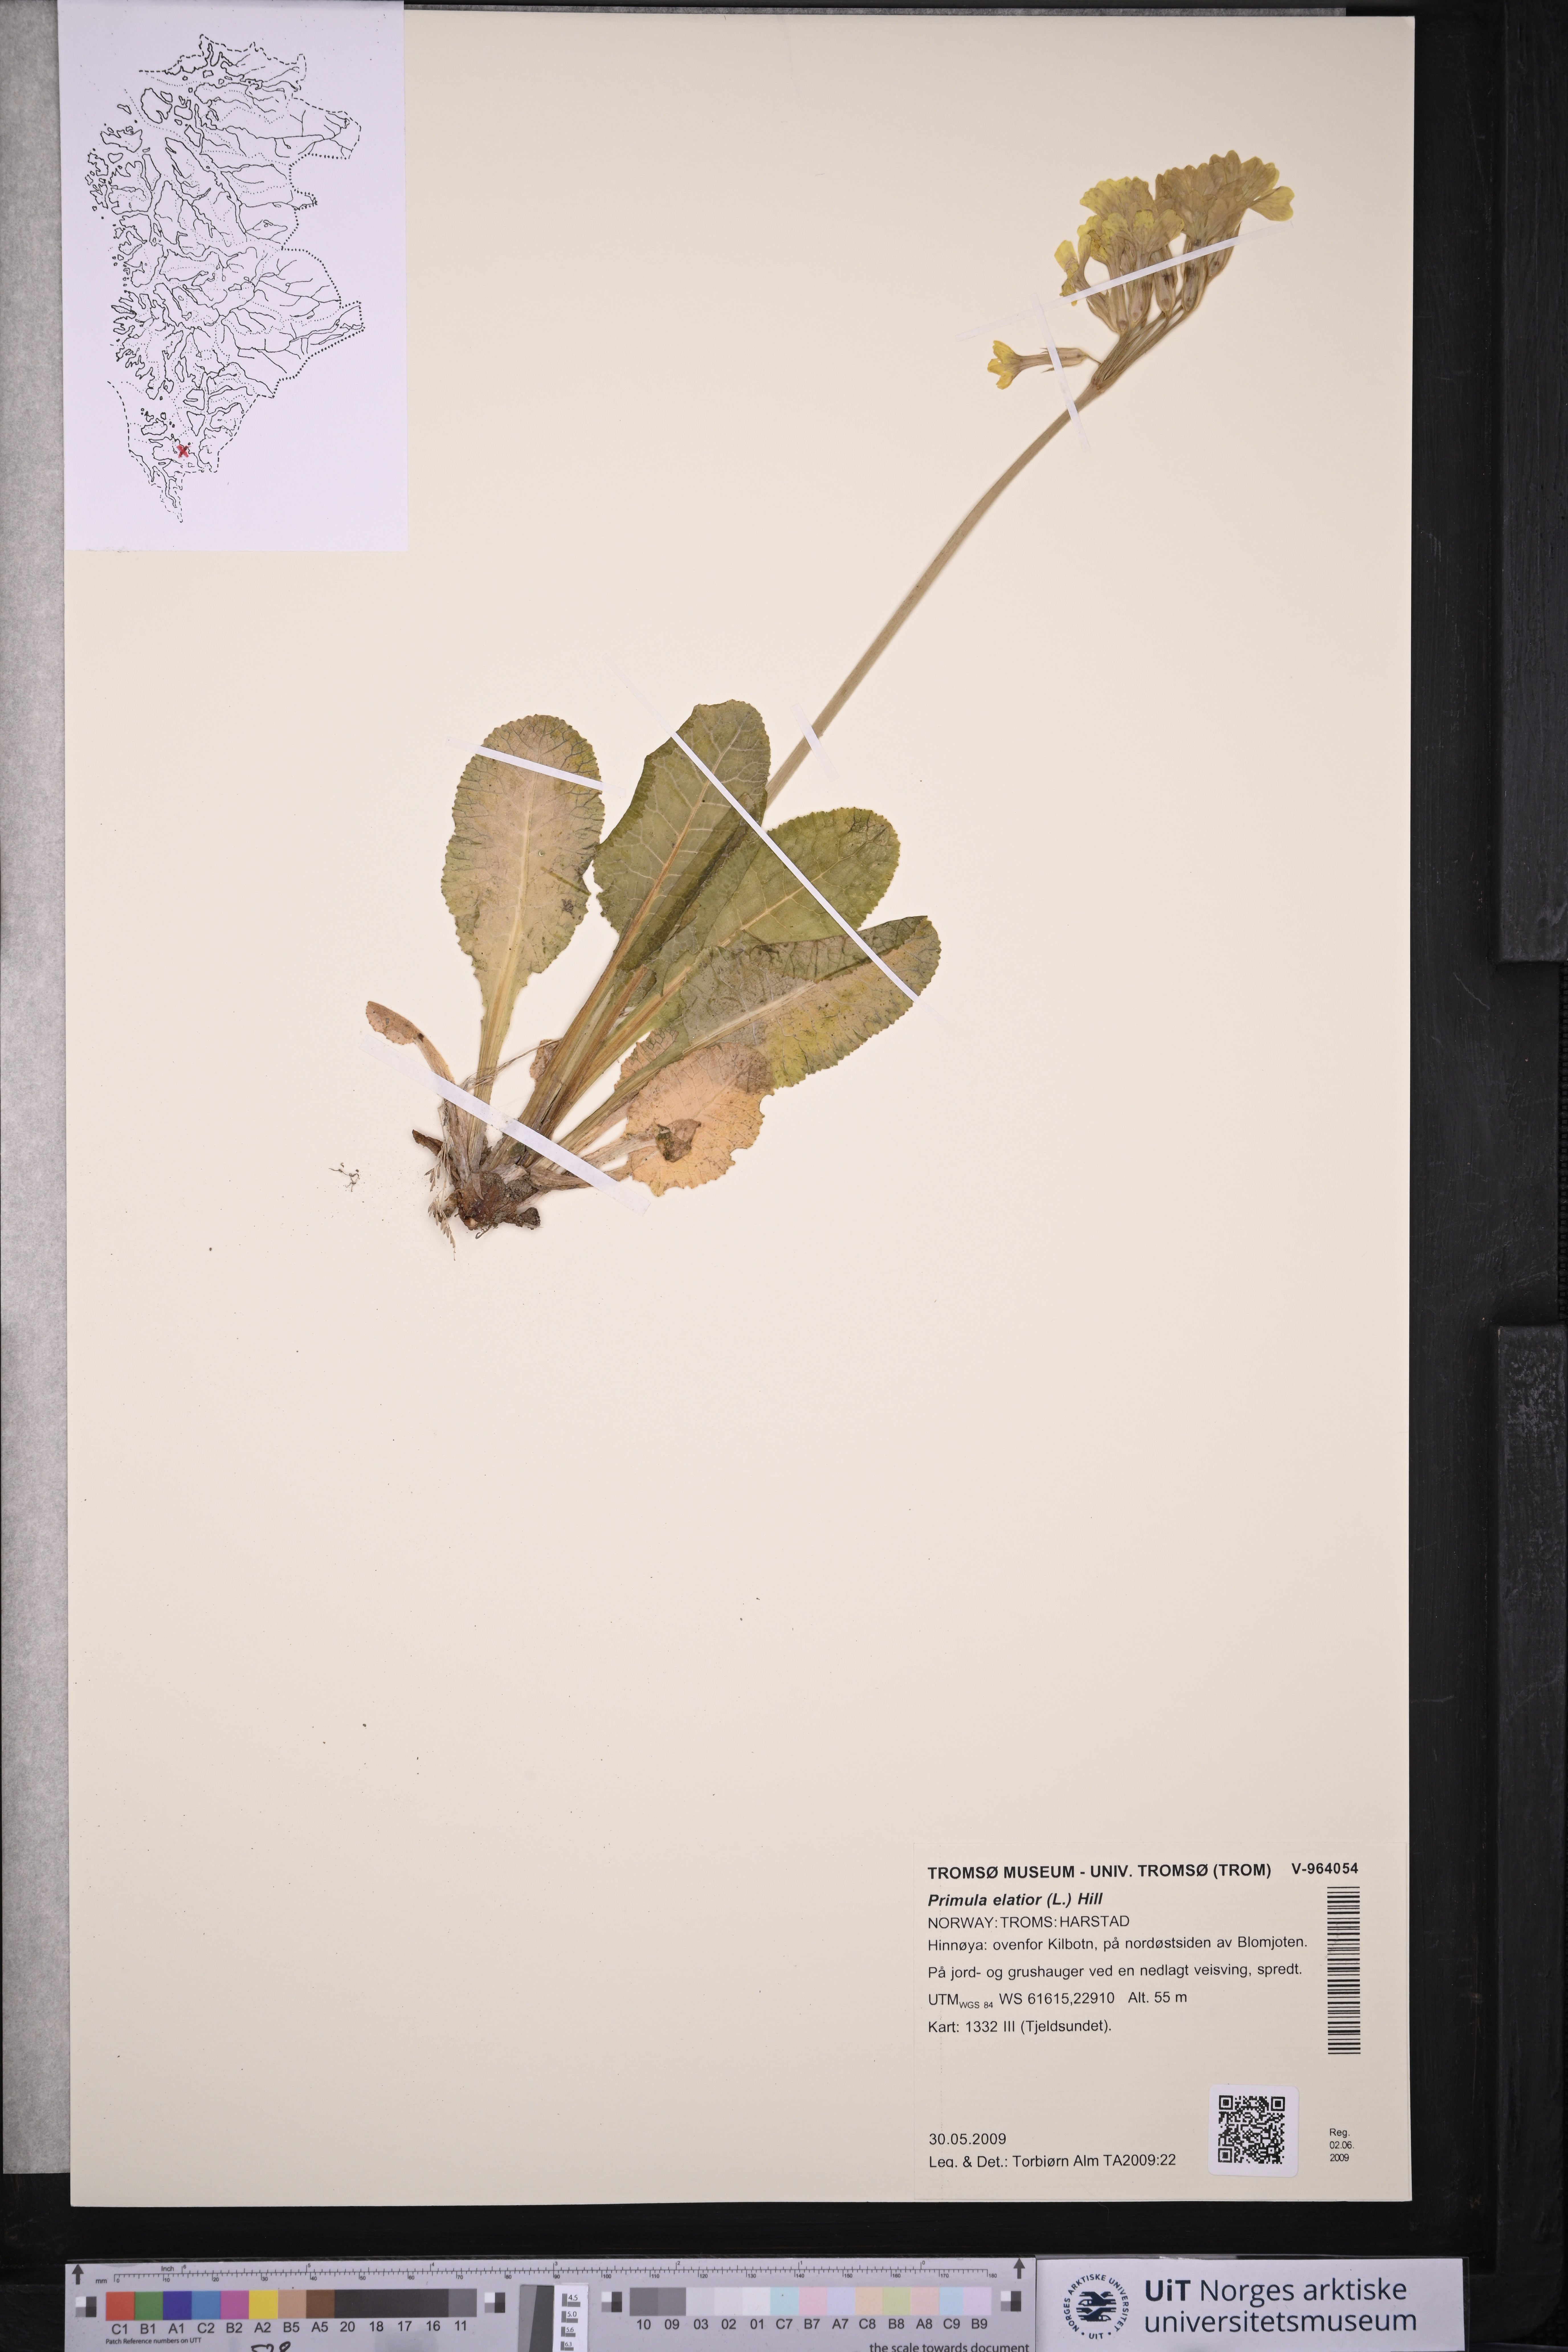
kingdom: Plantae
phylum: Tracheophyta
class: Magnoliopsida
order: Ericales
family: Primulaceae
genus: Primula
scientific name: Primula elatior
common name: Oxlip
